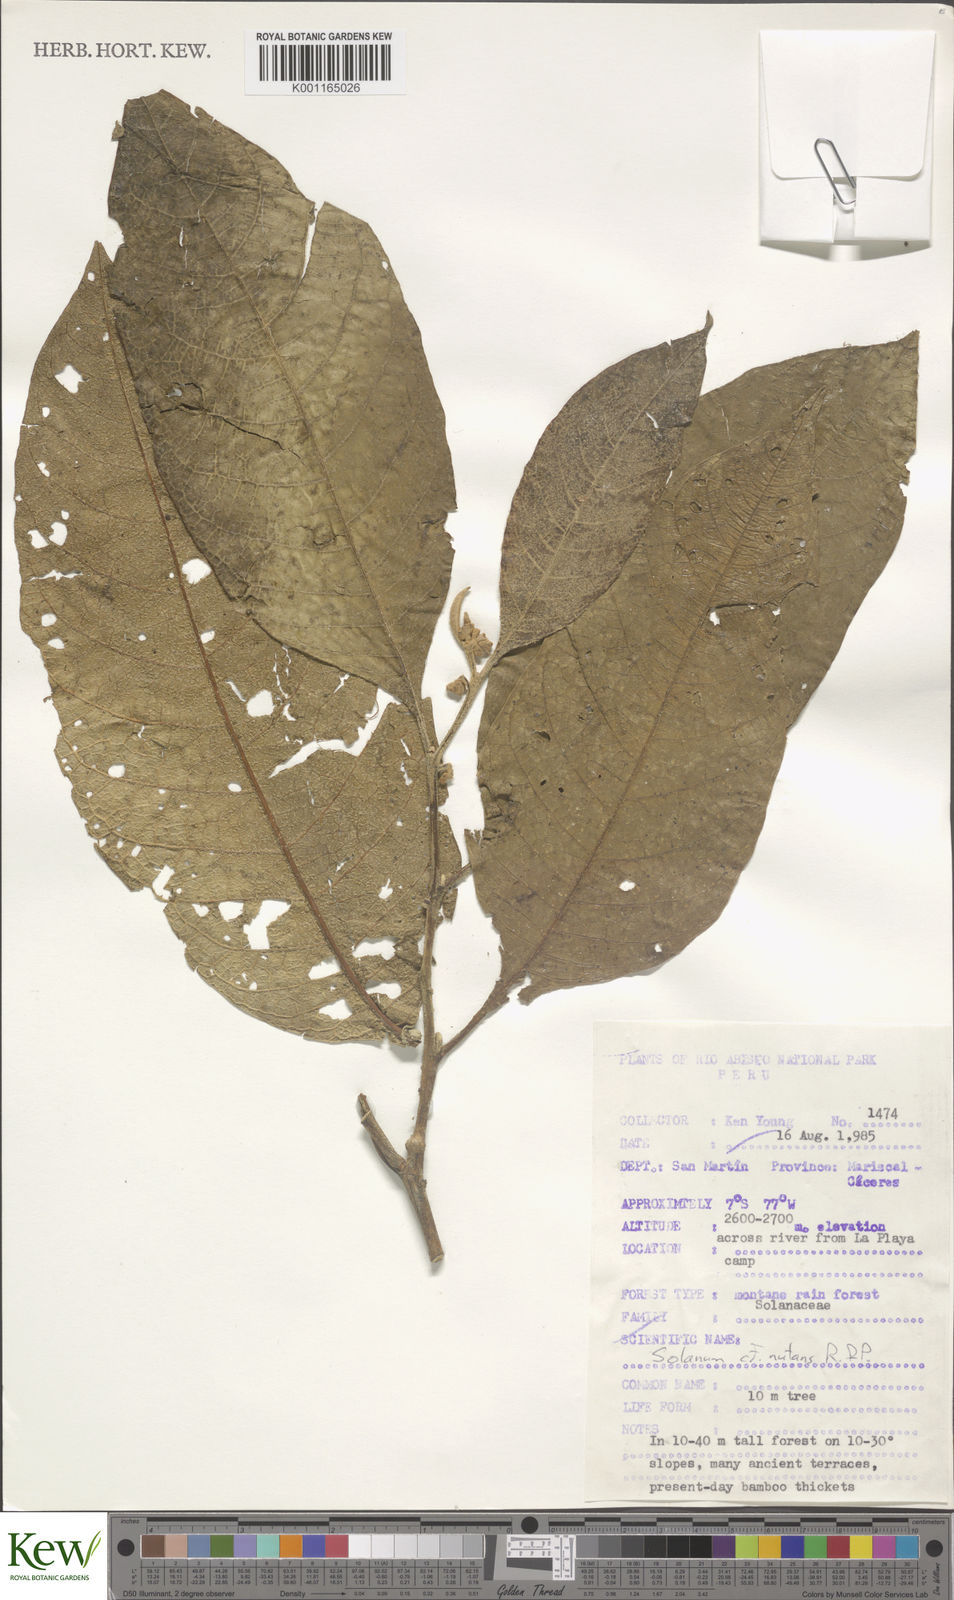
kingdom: Plantae
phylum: Tracheophyta
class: Magnoliopsida
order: Solanales
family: Solanaceae
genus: Solanum
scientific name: Solanum nutans
